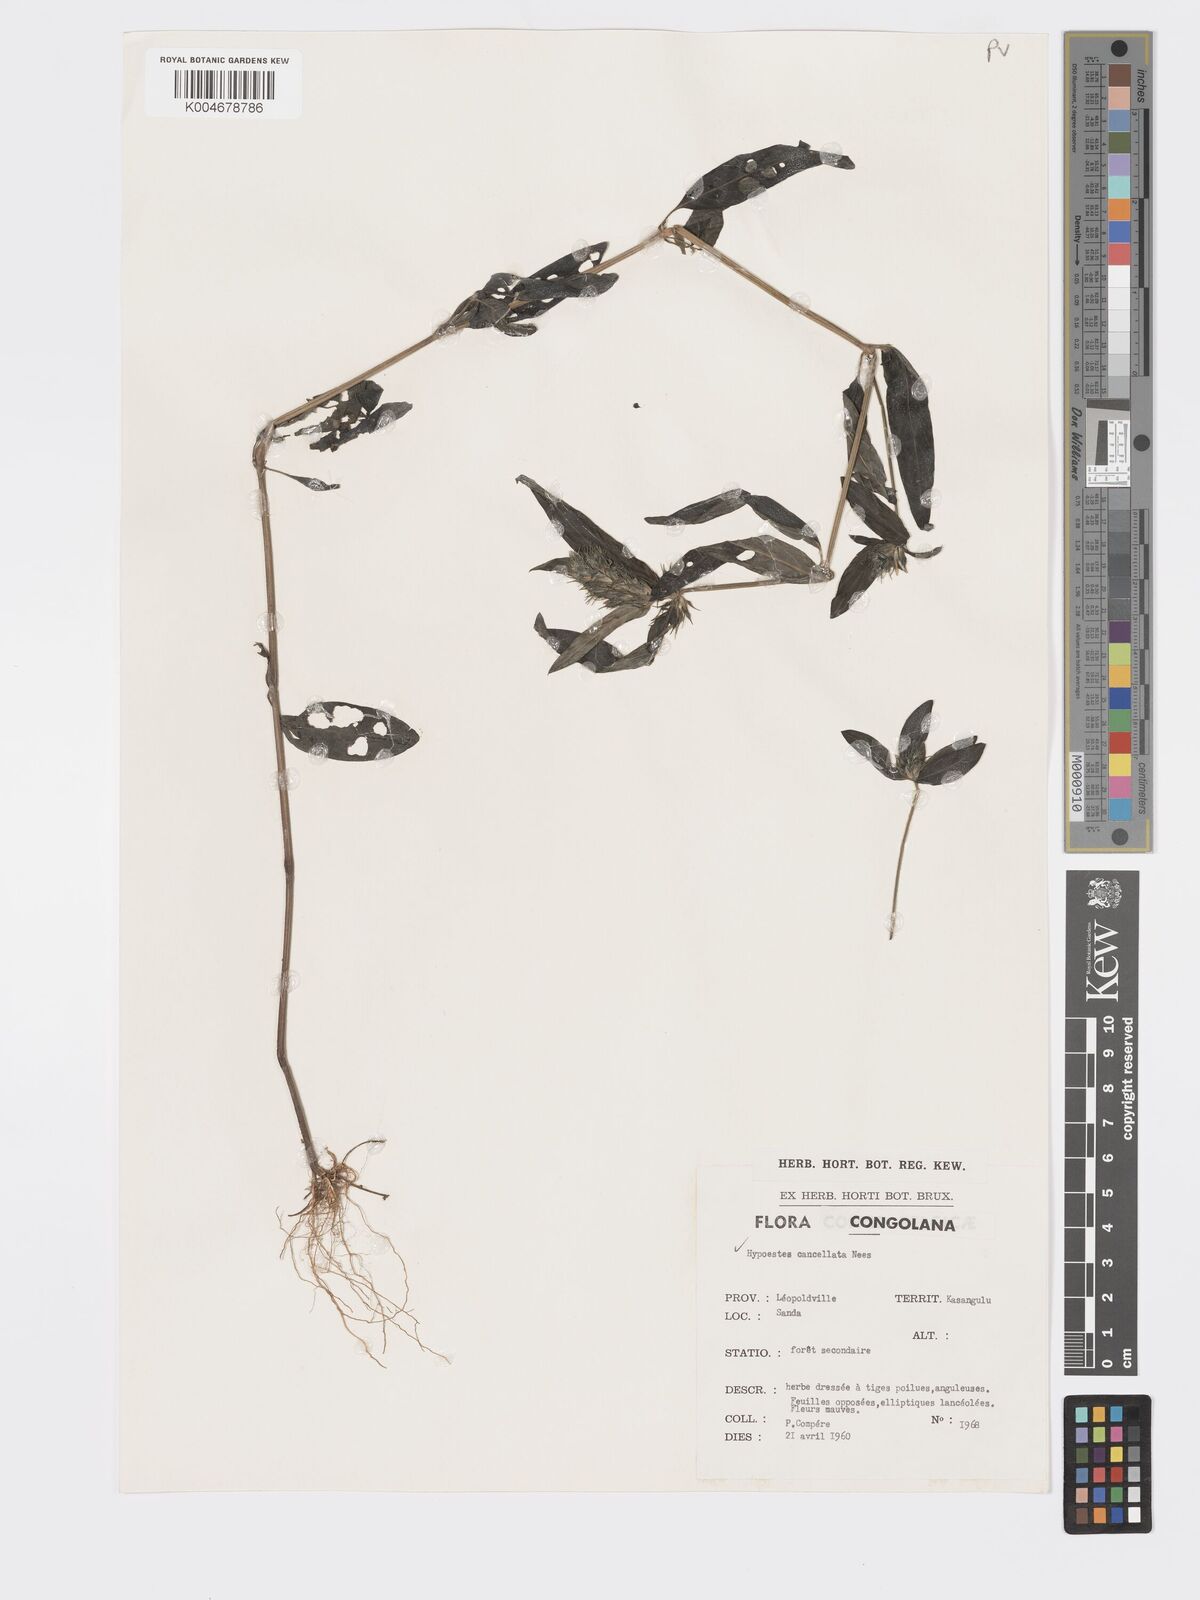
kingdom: Plantae
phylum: Tracheophyta
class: Magnoliopsida
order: Lamiales
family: Acanthaceae
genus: Hypoestes
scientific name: Hypoestes cancellata
